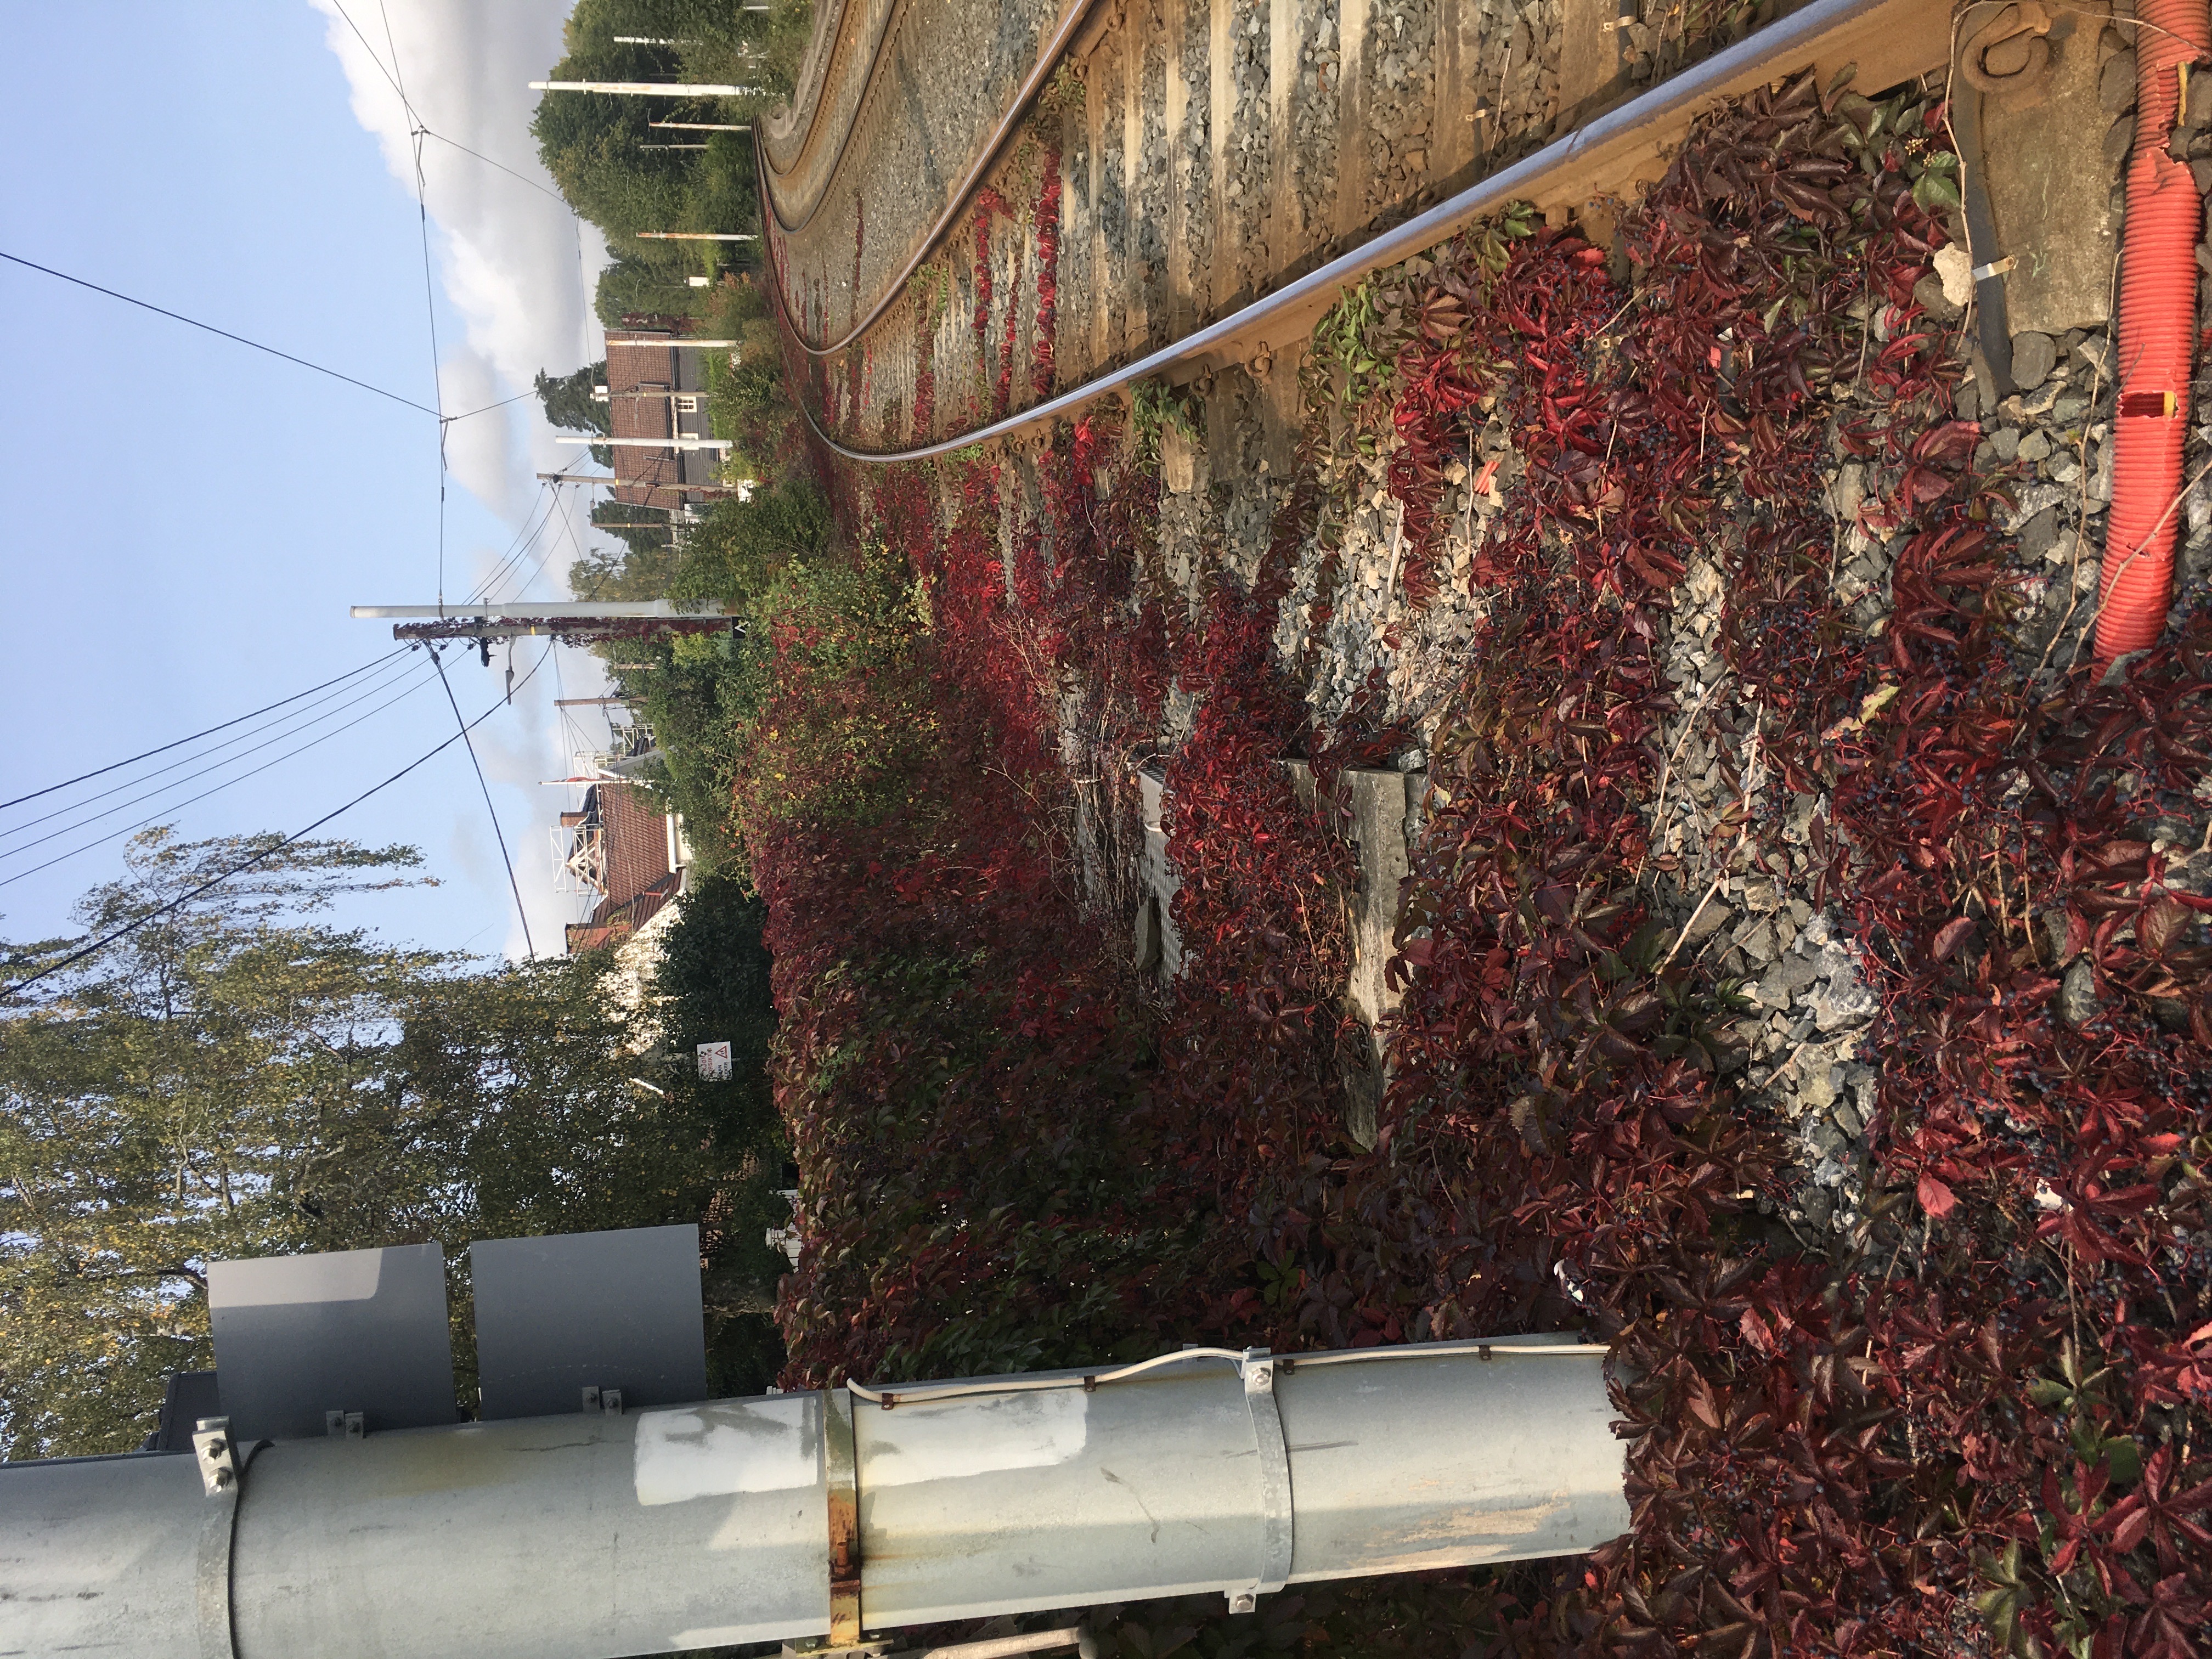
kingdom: Plantae
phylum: Tracheophyta
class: Magnoliopsida
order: Vitales
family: Vitaceae
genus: Parthenocissus
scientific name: Parthenocissus quinquefolia
